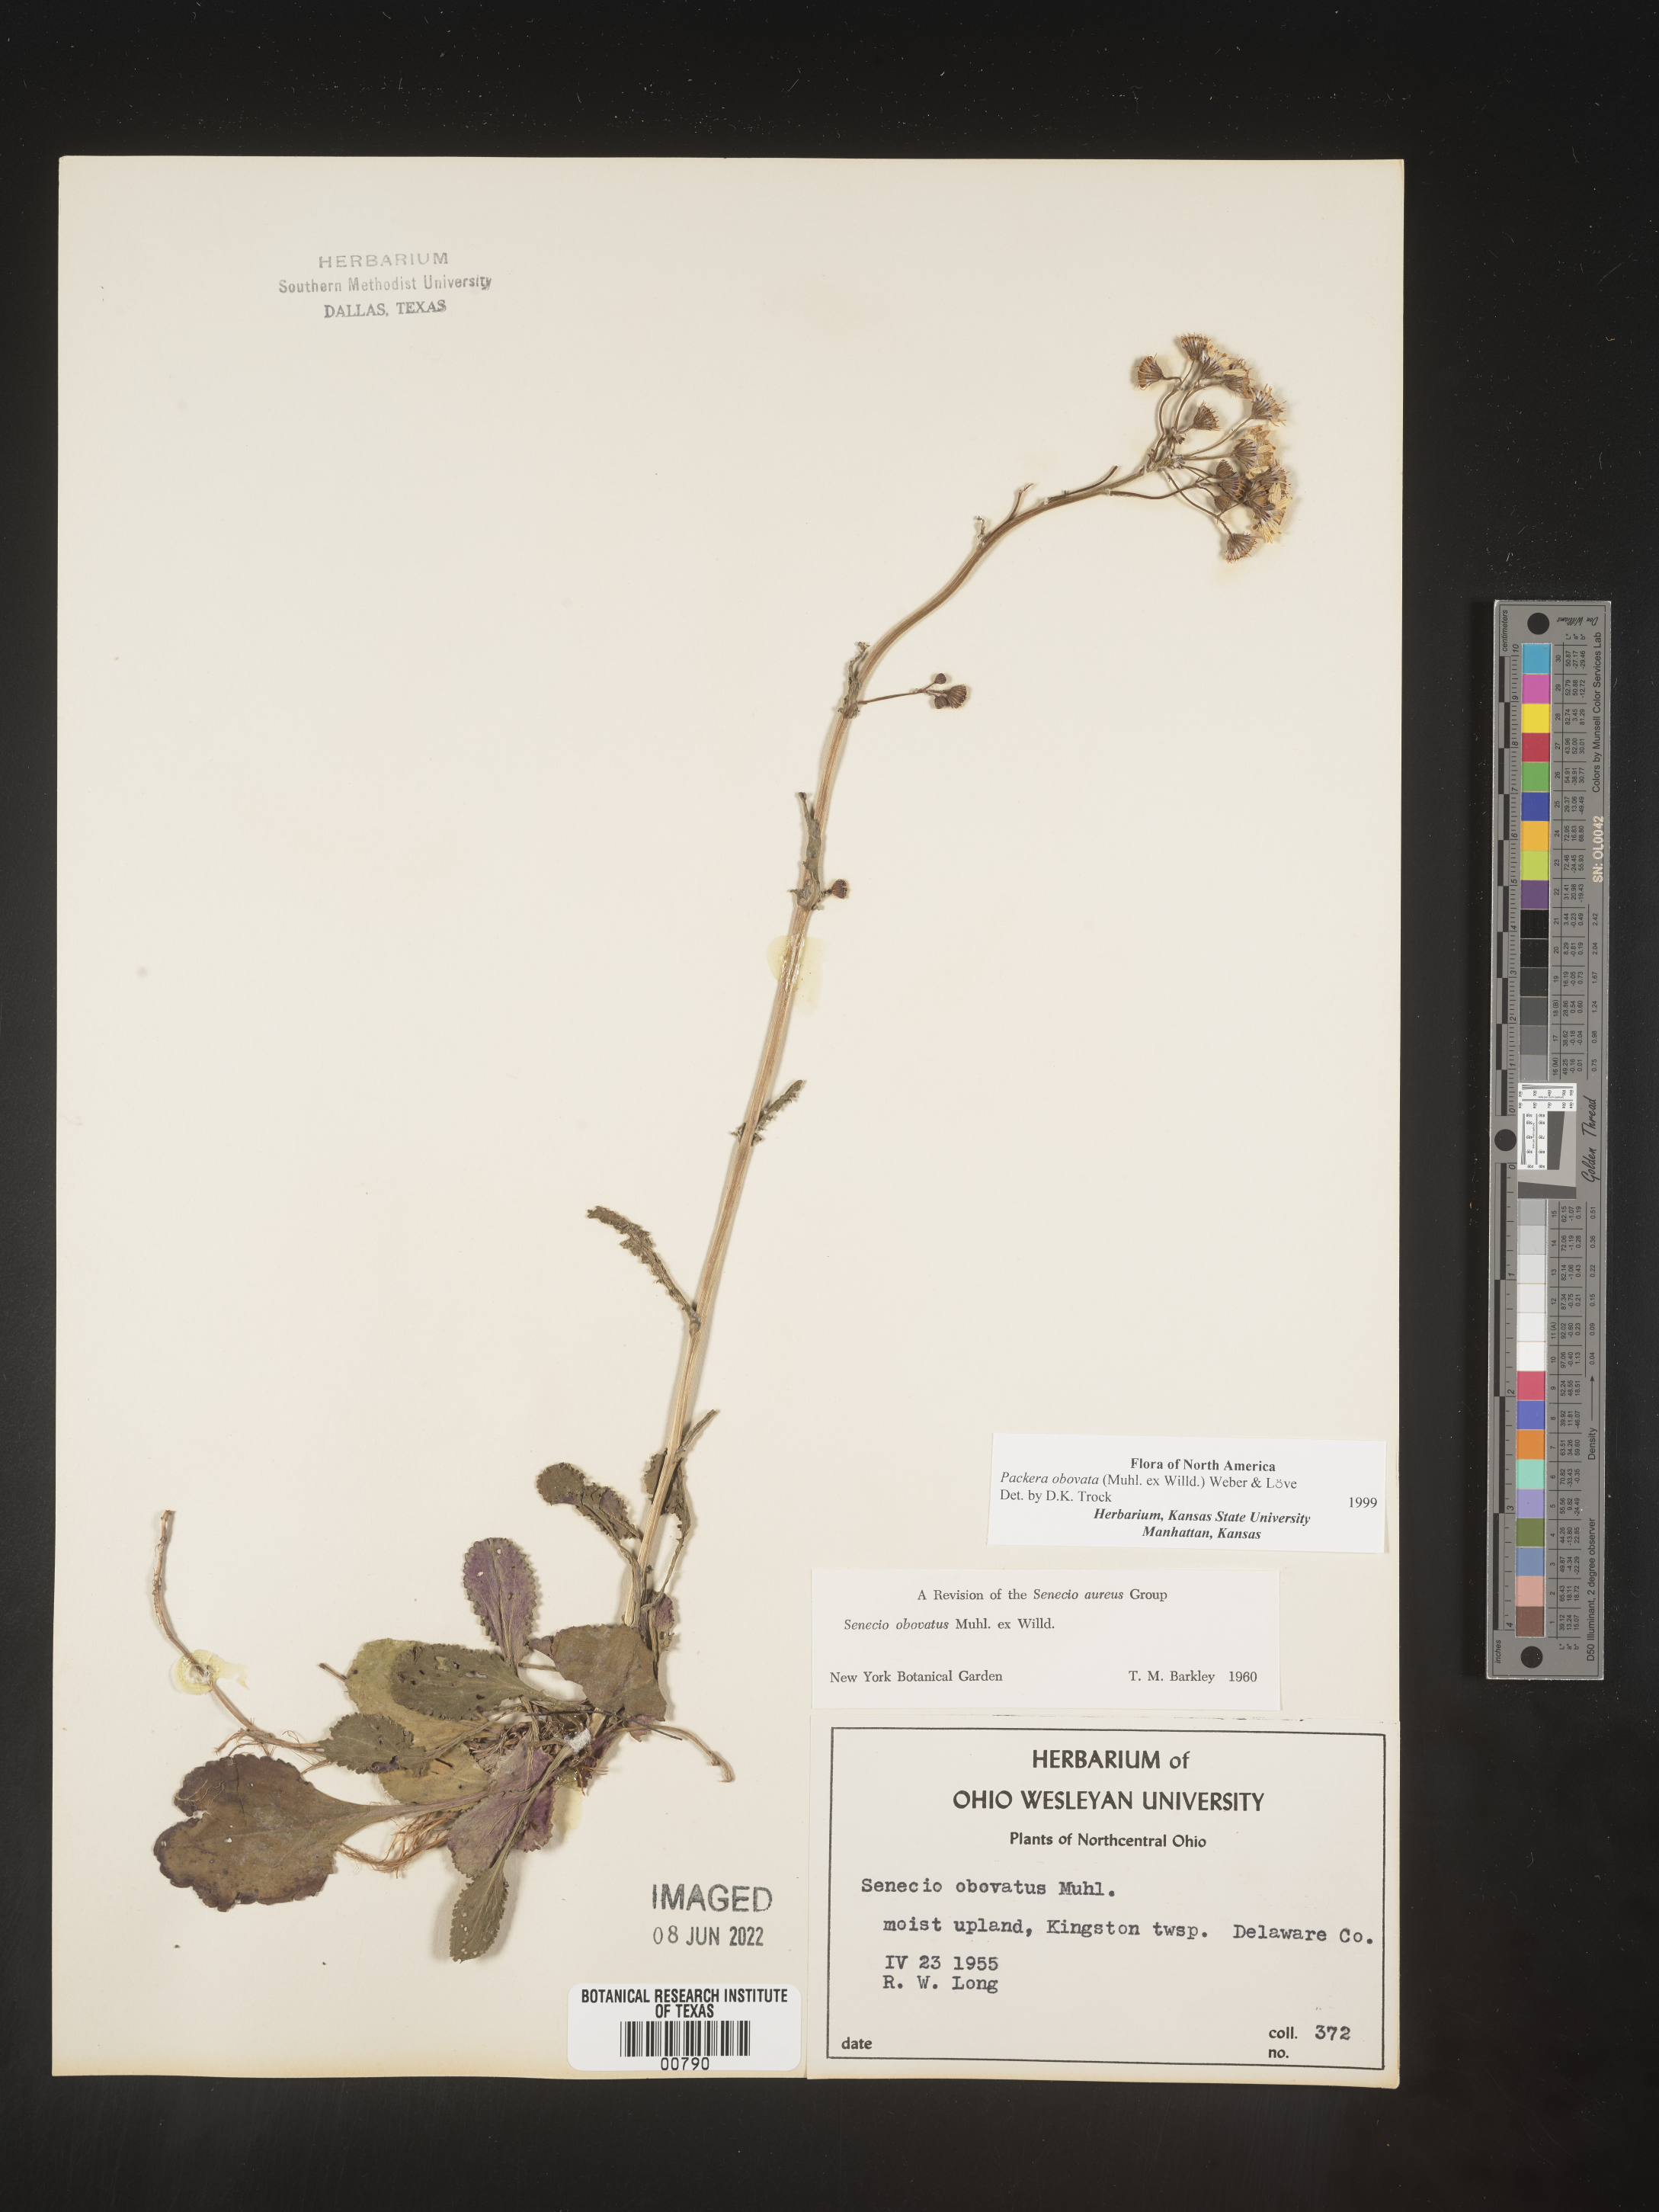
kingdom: Plantae
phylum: Tracheophyta
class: Magnoliopsida
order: Asterales
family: Asteraceae
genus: Packera
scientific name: Packera obovata
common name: Round-leaf ragwort
